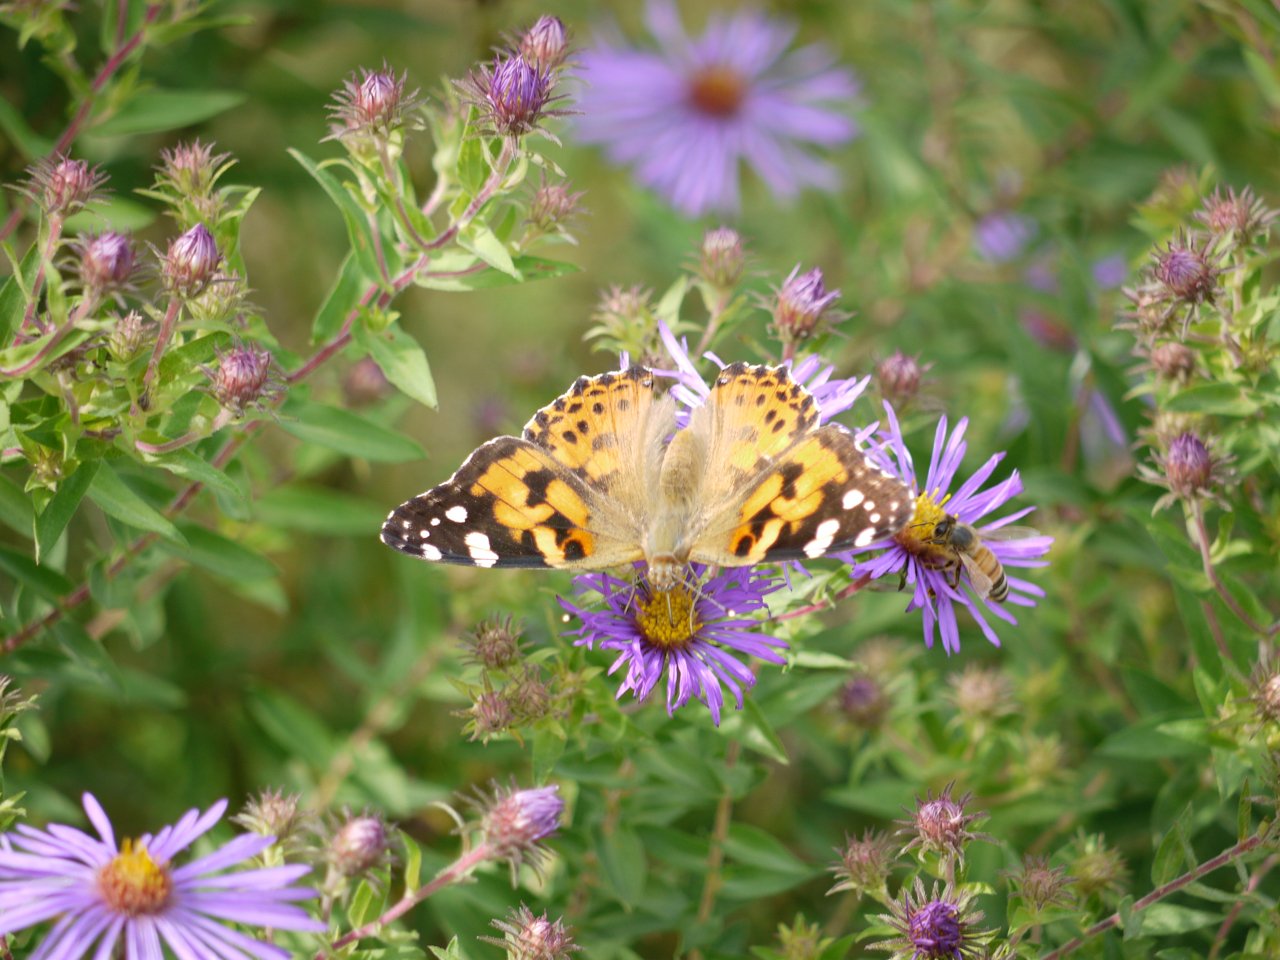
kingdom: Animalia
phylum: Arthropoda
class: Insecta
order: Lepidoptera
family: Nymphalidae
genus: Vanessa
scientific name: Vanessa cardui
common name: Painted Lady
